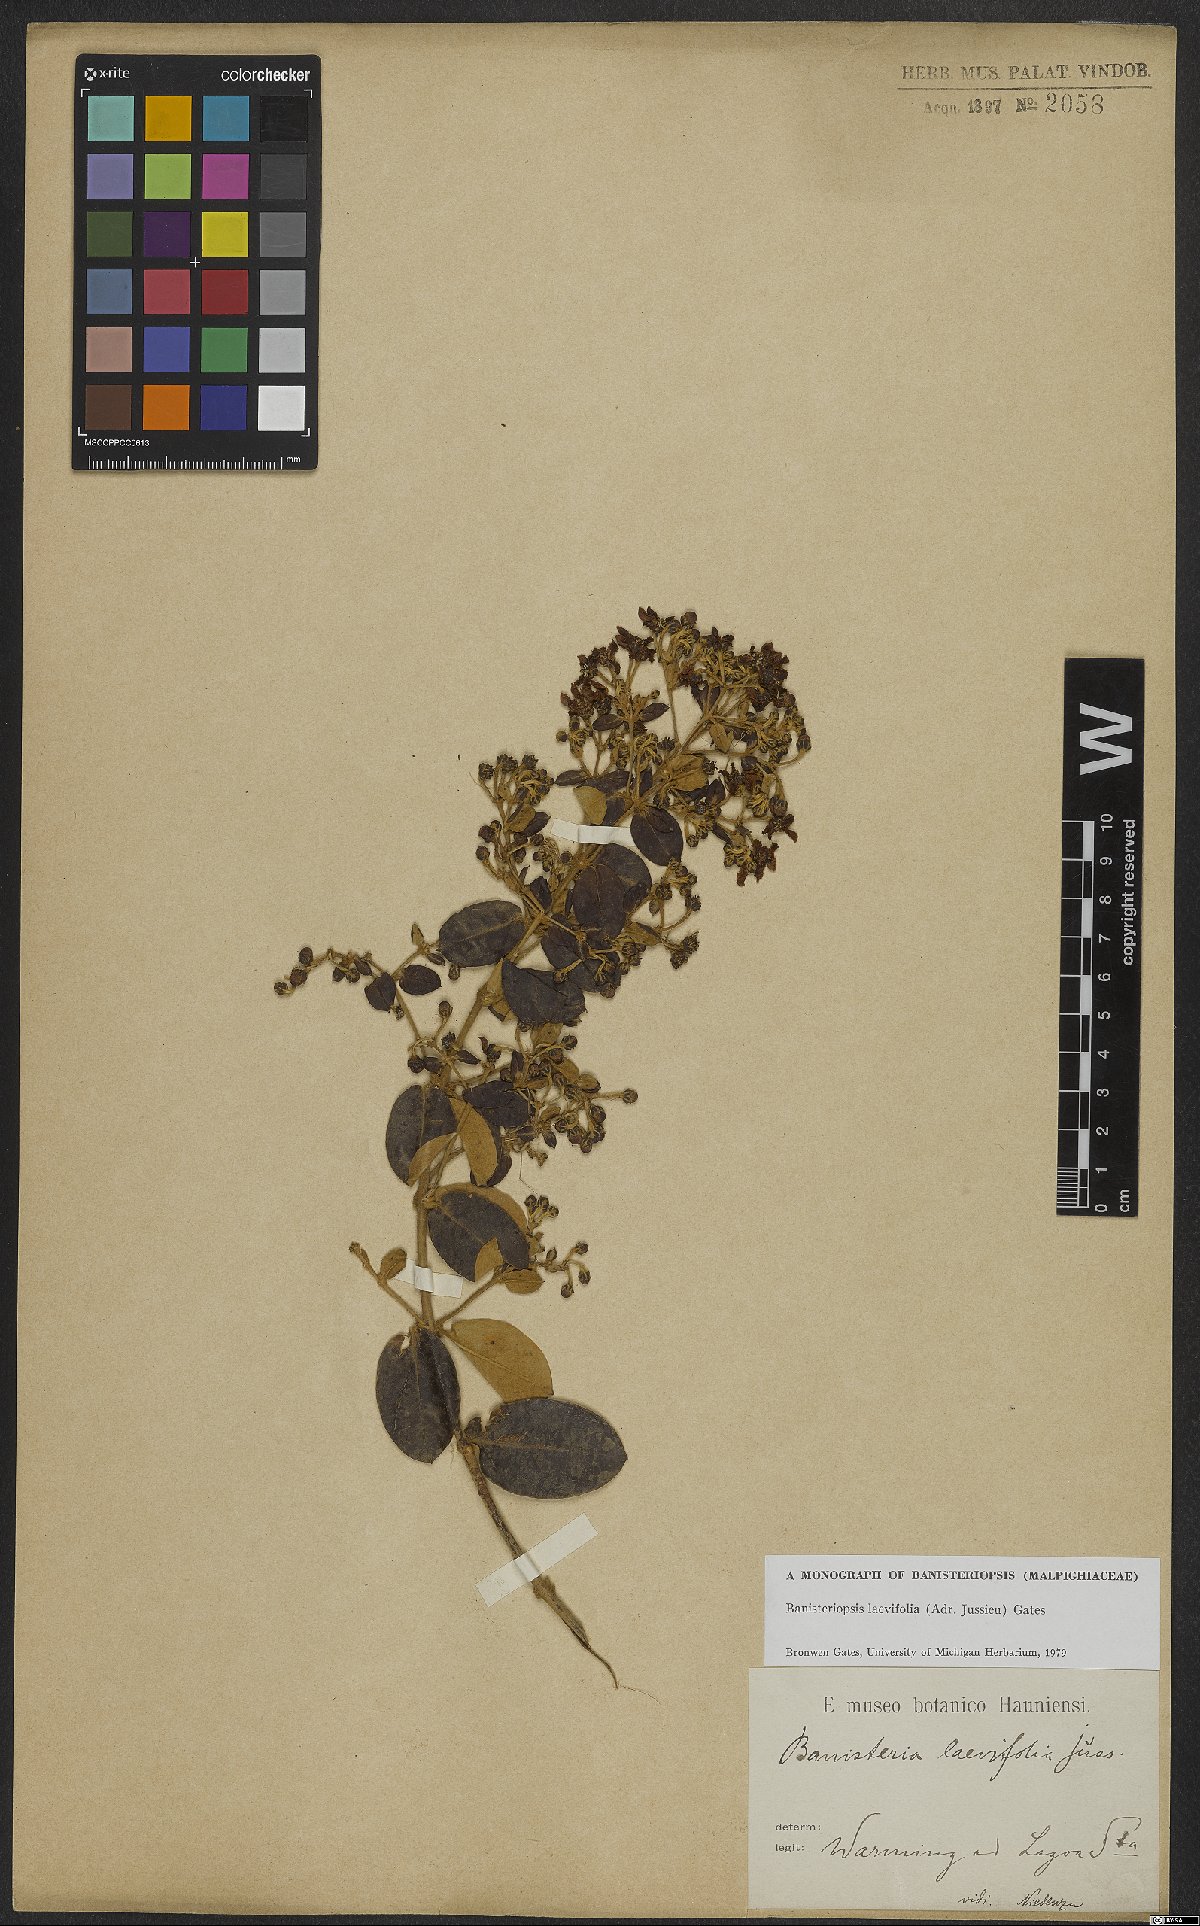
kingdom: Plantae
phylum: Tracheophyta
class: Magnoliopsida
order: Malpighiales
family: Malpighiaceae
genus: Banisteriopsis
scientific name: Banisteriopsis laevifolia
